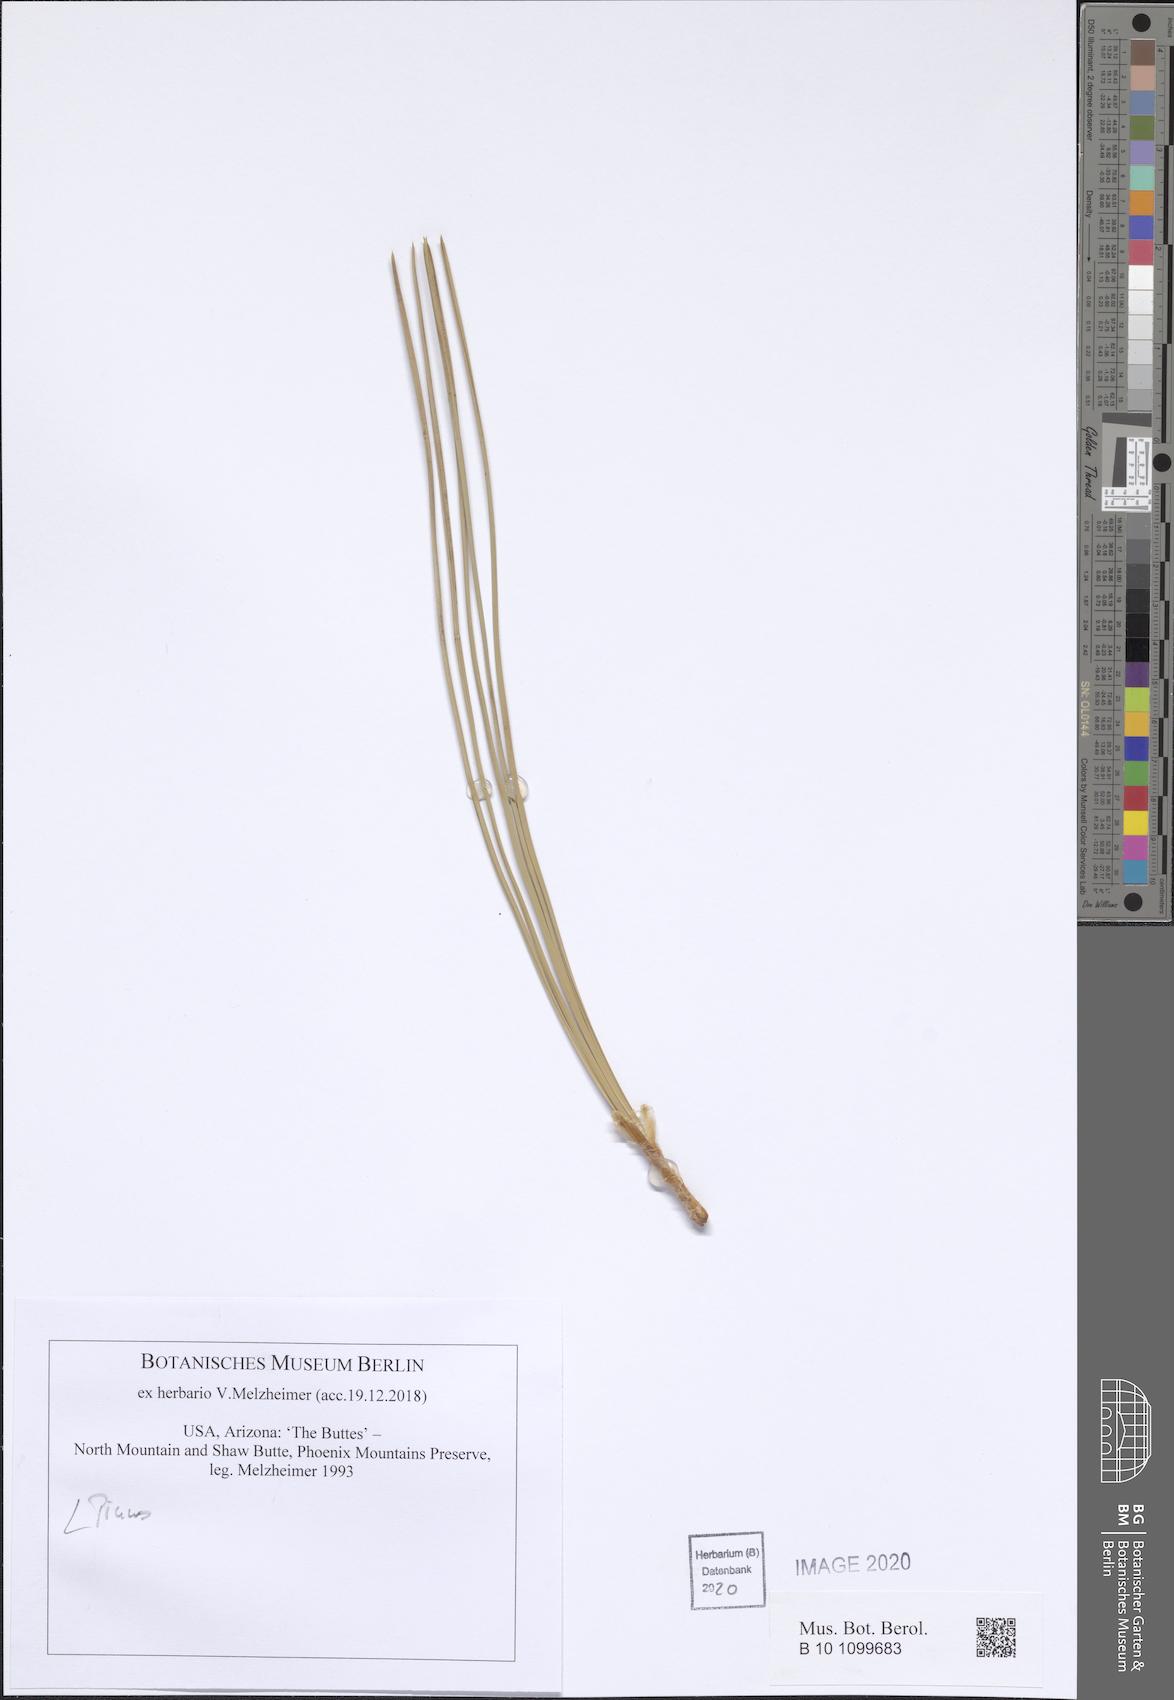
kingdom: Plantae
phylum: Tracheophyta
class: Pinopsida
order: Pinales
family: Pinaceae
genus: Pinus
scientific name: Pinus
